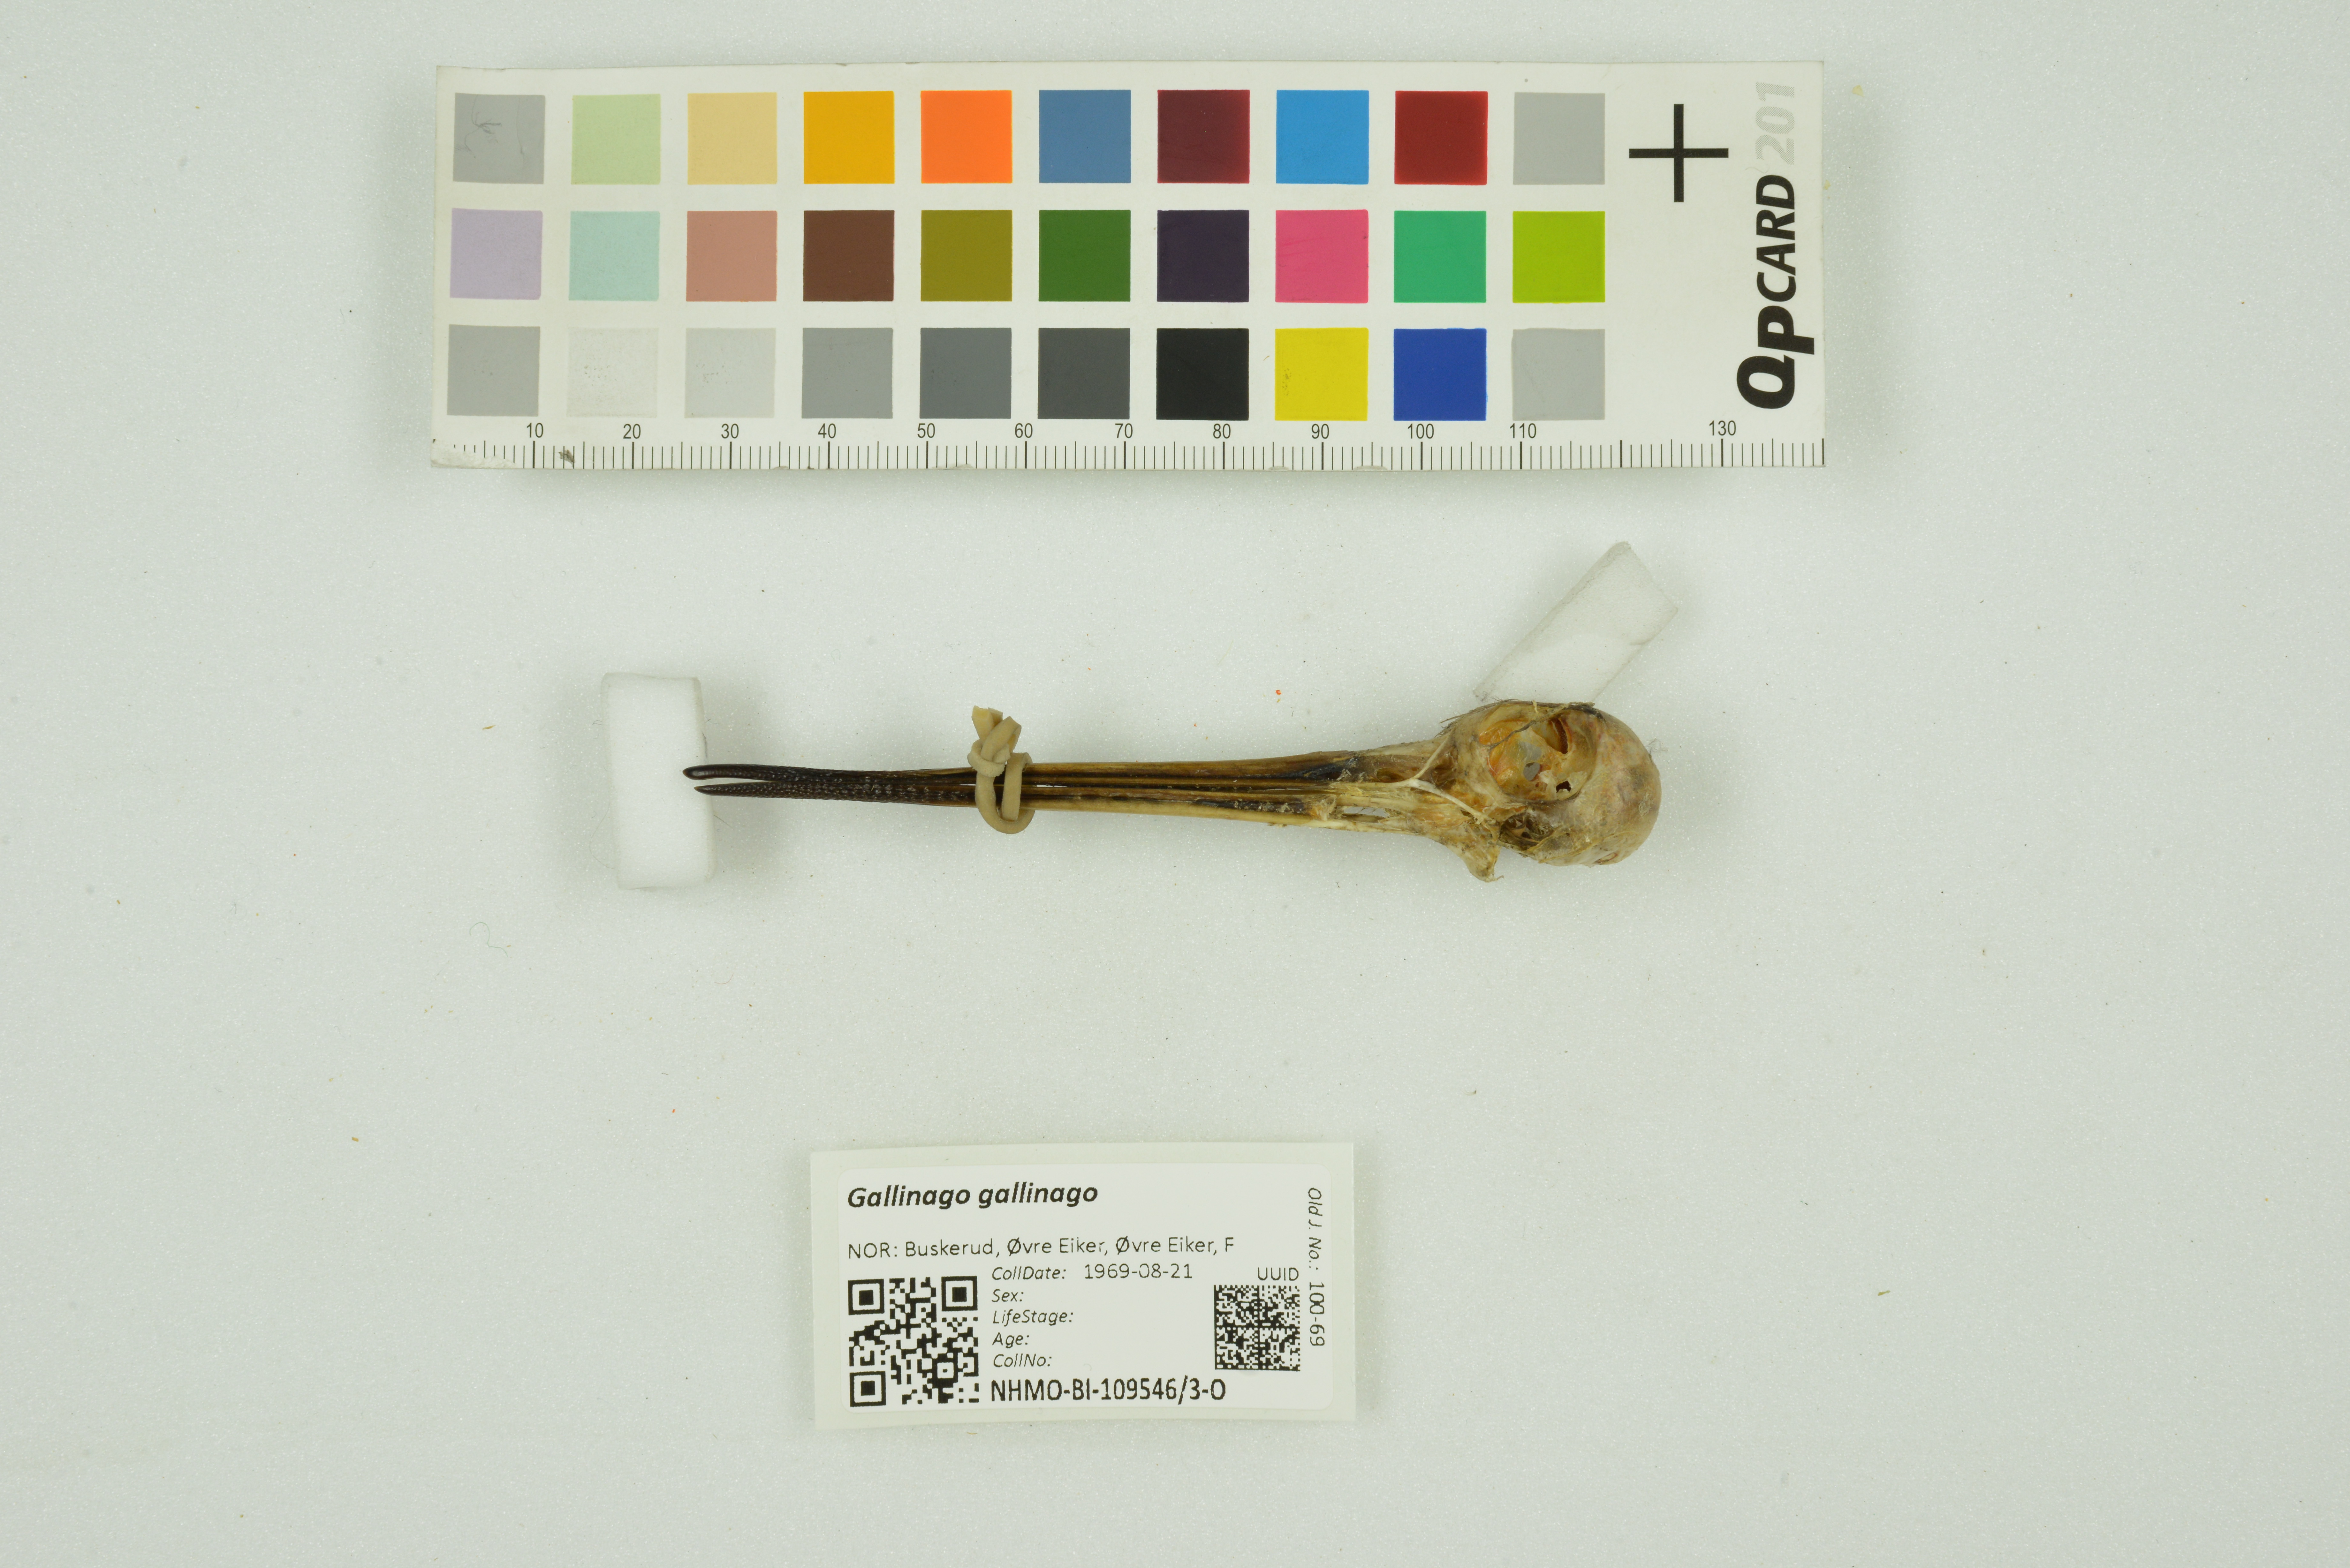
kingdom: Animalia
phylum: Chordata
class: Aves
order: Charadriiformes
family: Scolopacidae
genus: Gallinago
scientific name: Gallinago gallinago
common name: Common snipe
